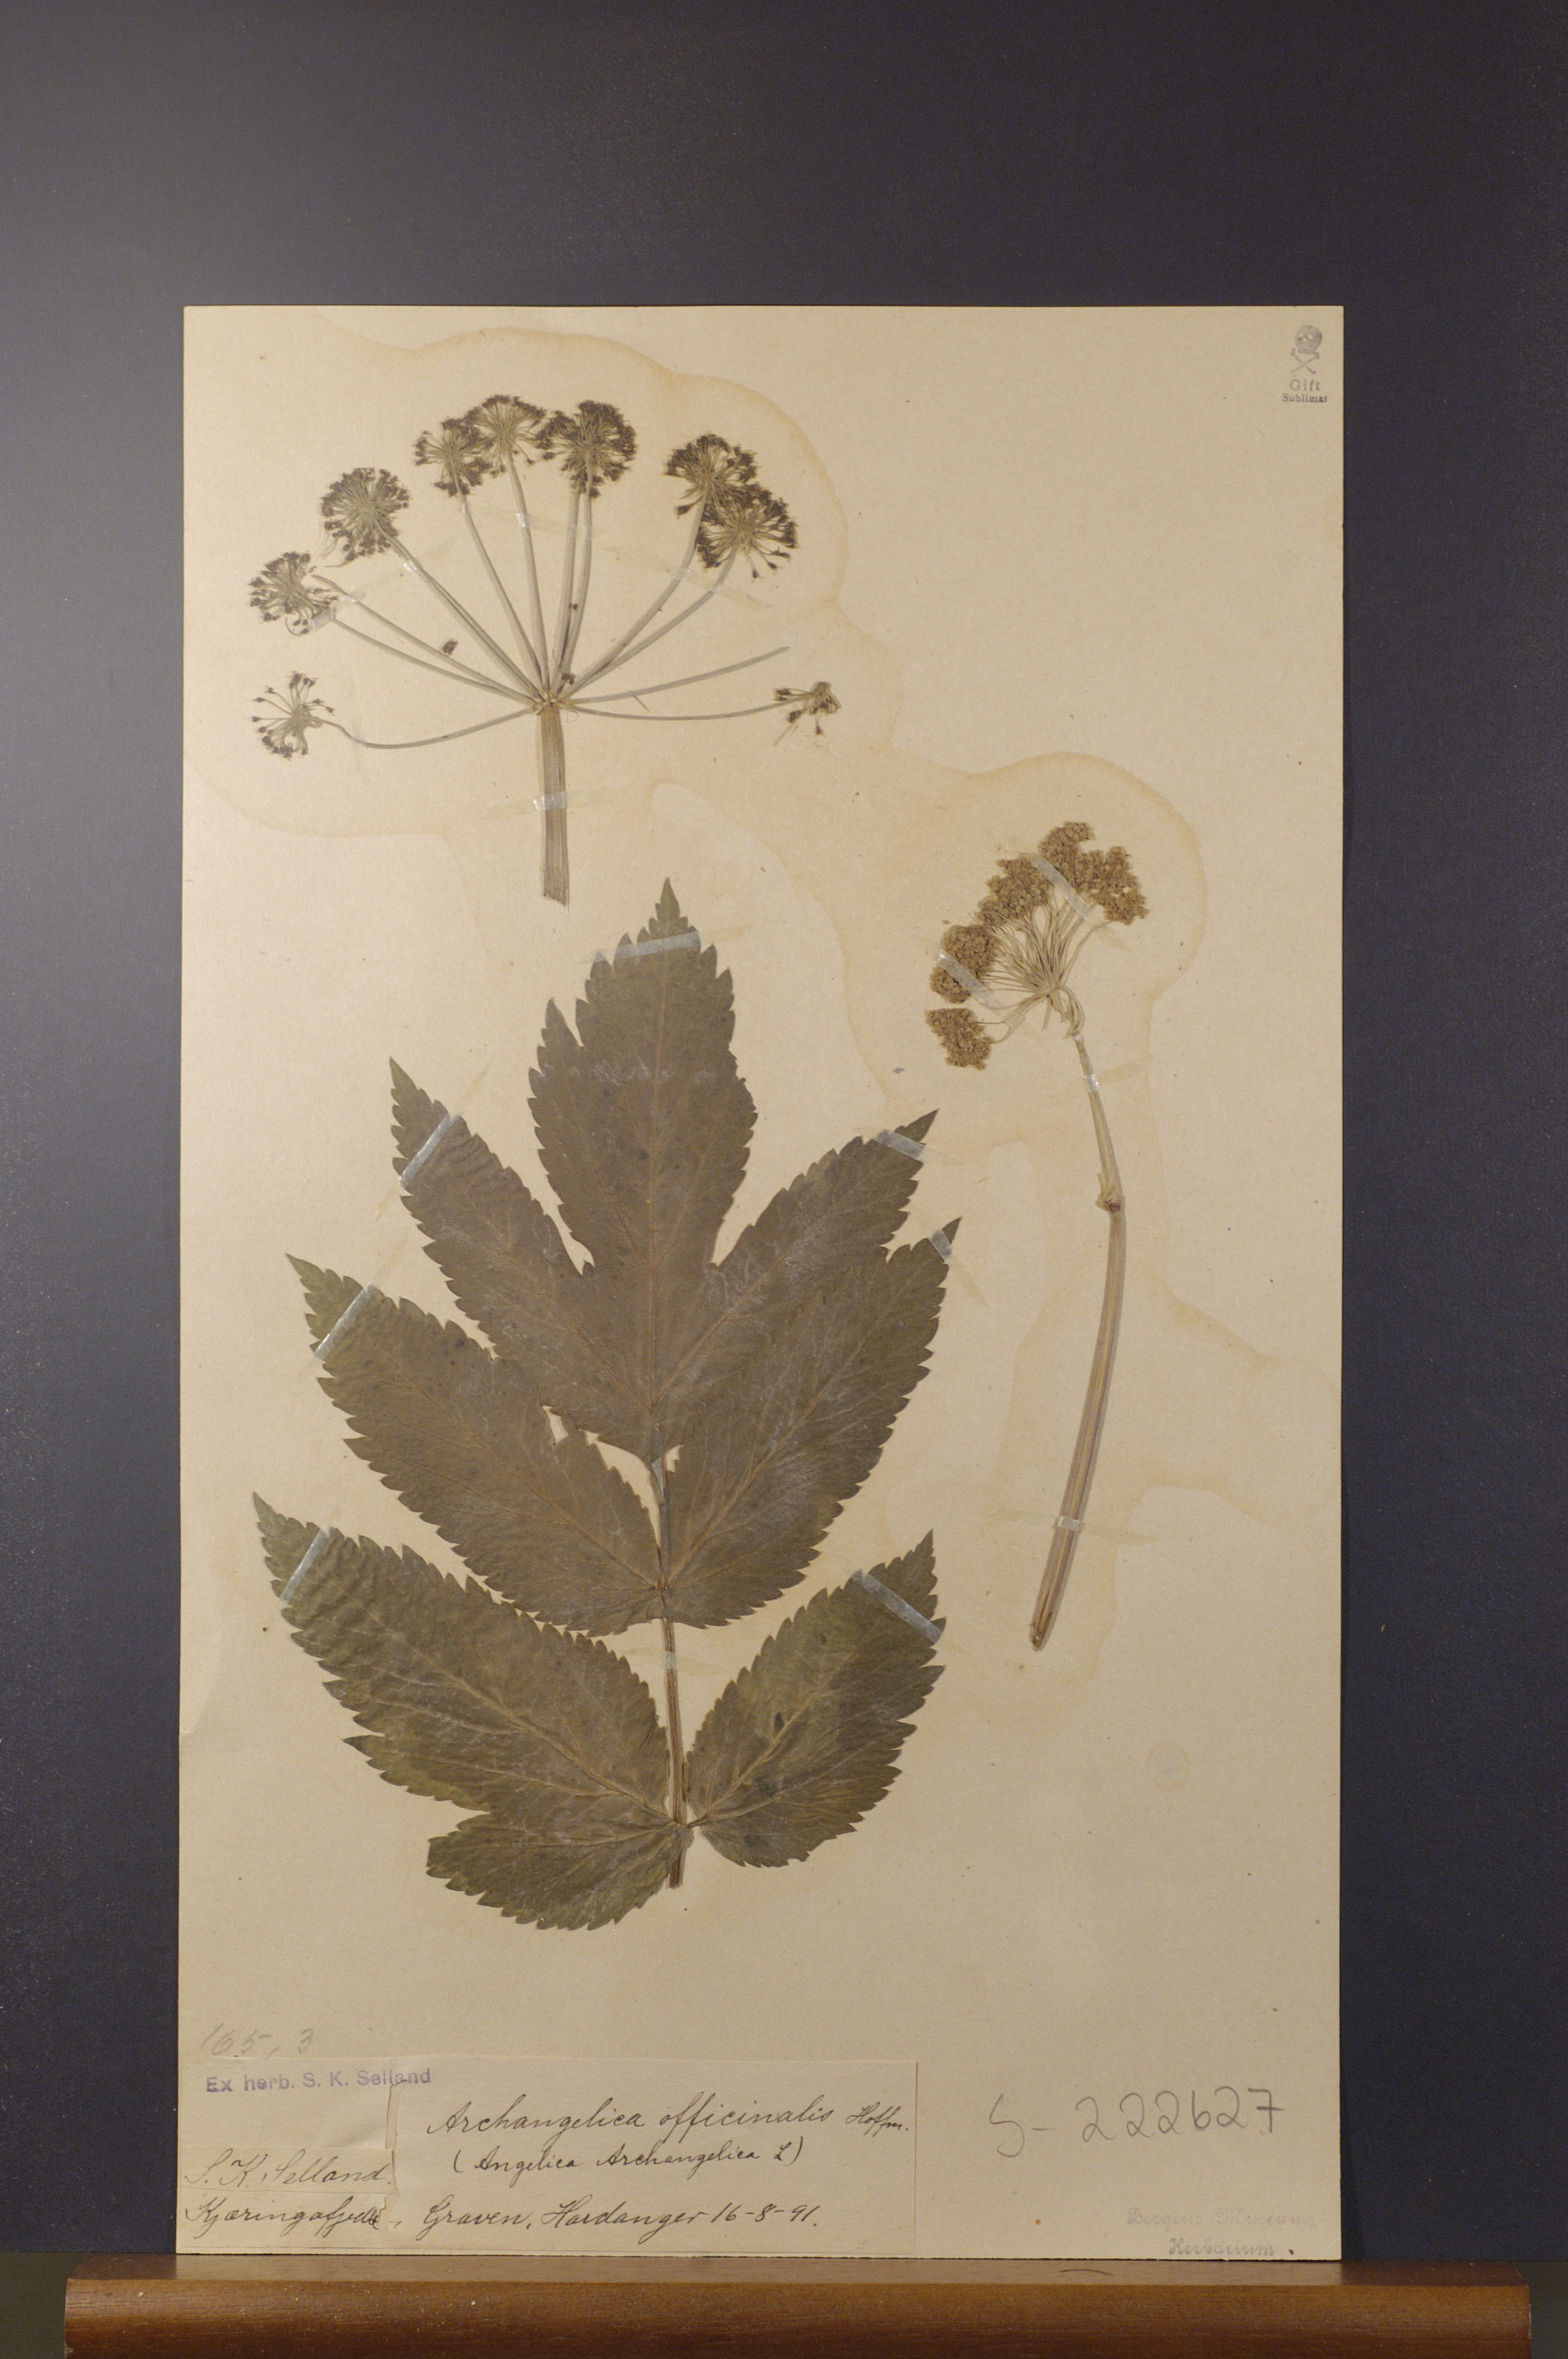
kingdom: Plantae
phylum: Tracheophyta
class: Magnoliopsida
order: Apiales
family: Apiaceae
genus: Angelica
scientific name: Angelica archangelica
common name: Garden angelica
